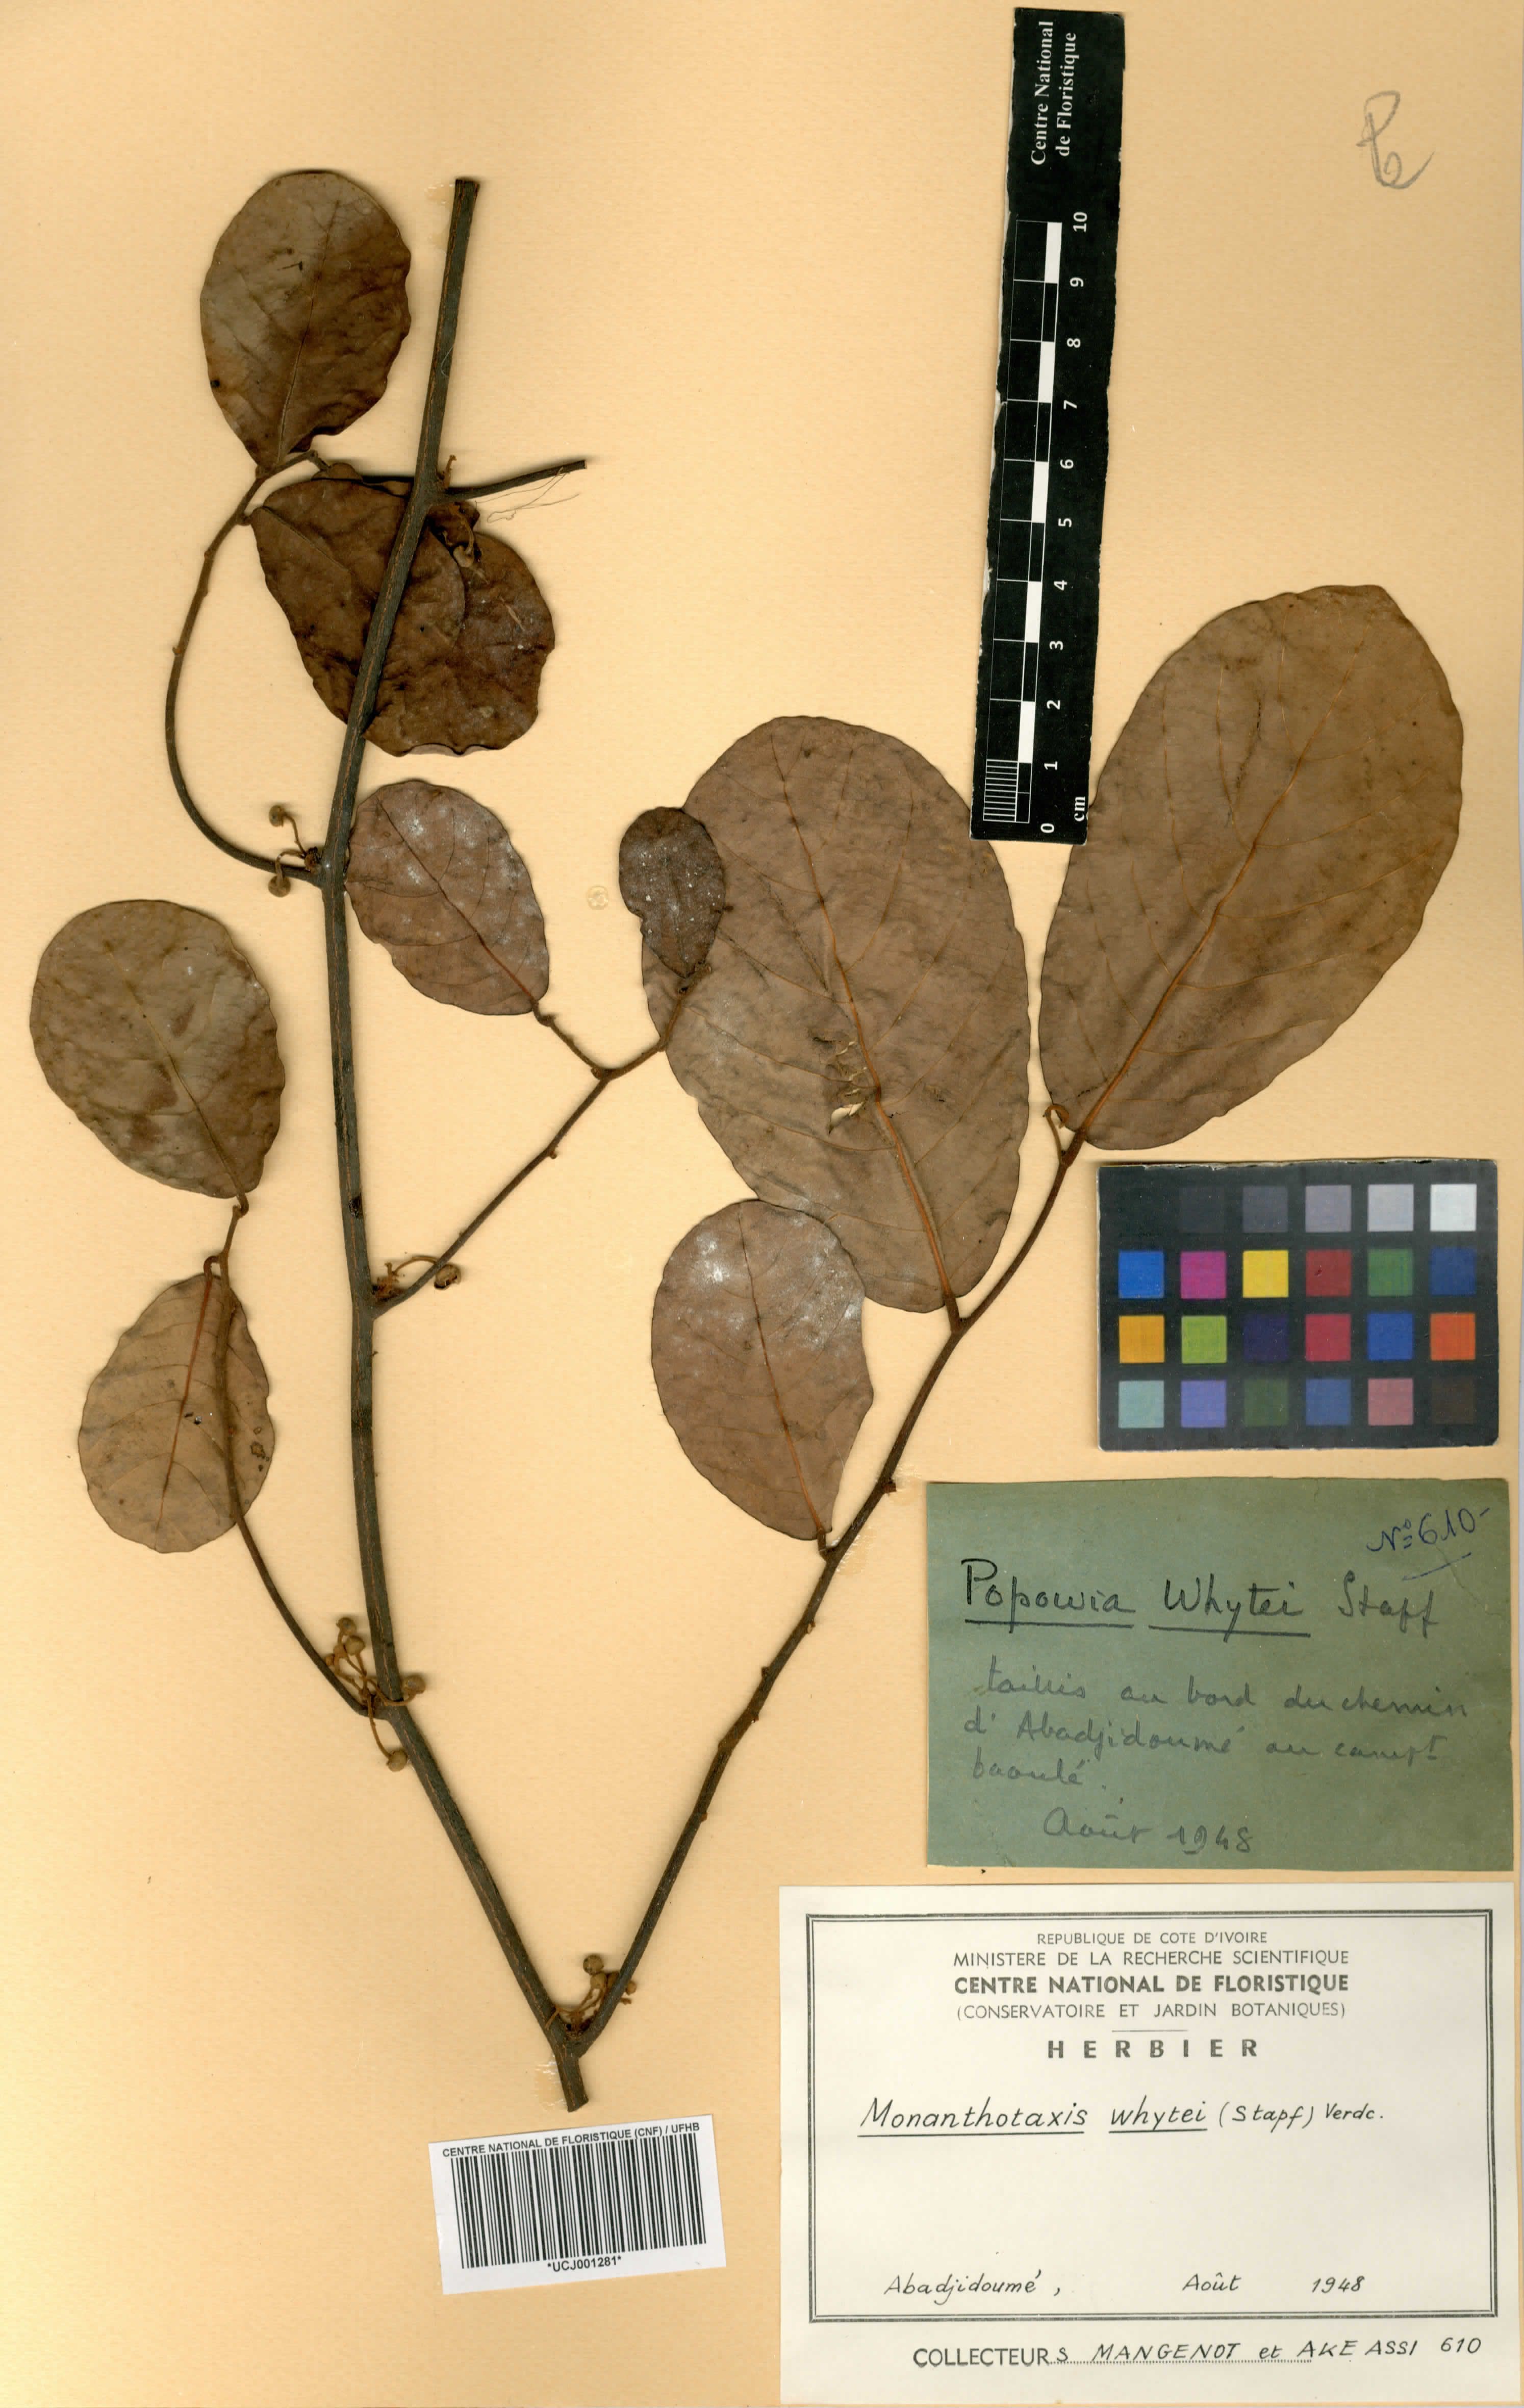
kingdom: Plantae
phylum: Tracheophyta
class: Magnoliopsida
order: Magnoliales
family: Annonaceae
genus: Monanthotaxis
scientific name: Monanthotaxis whytei
